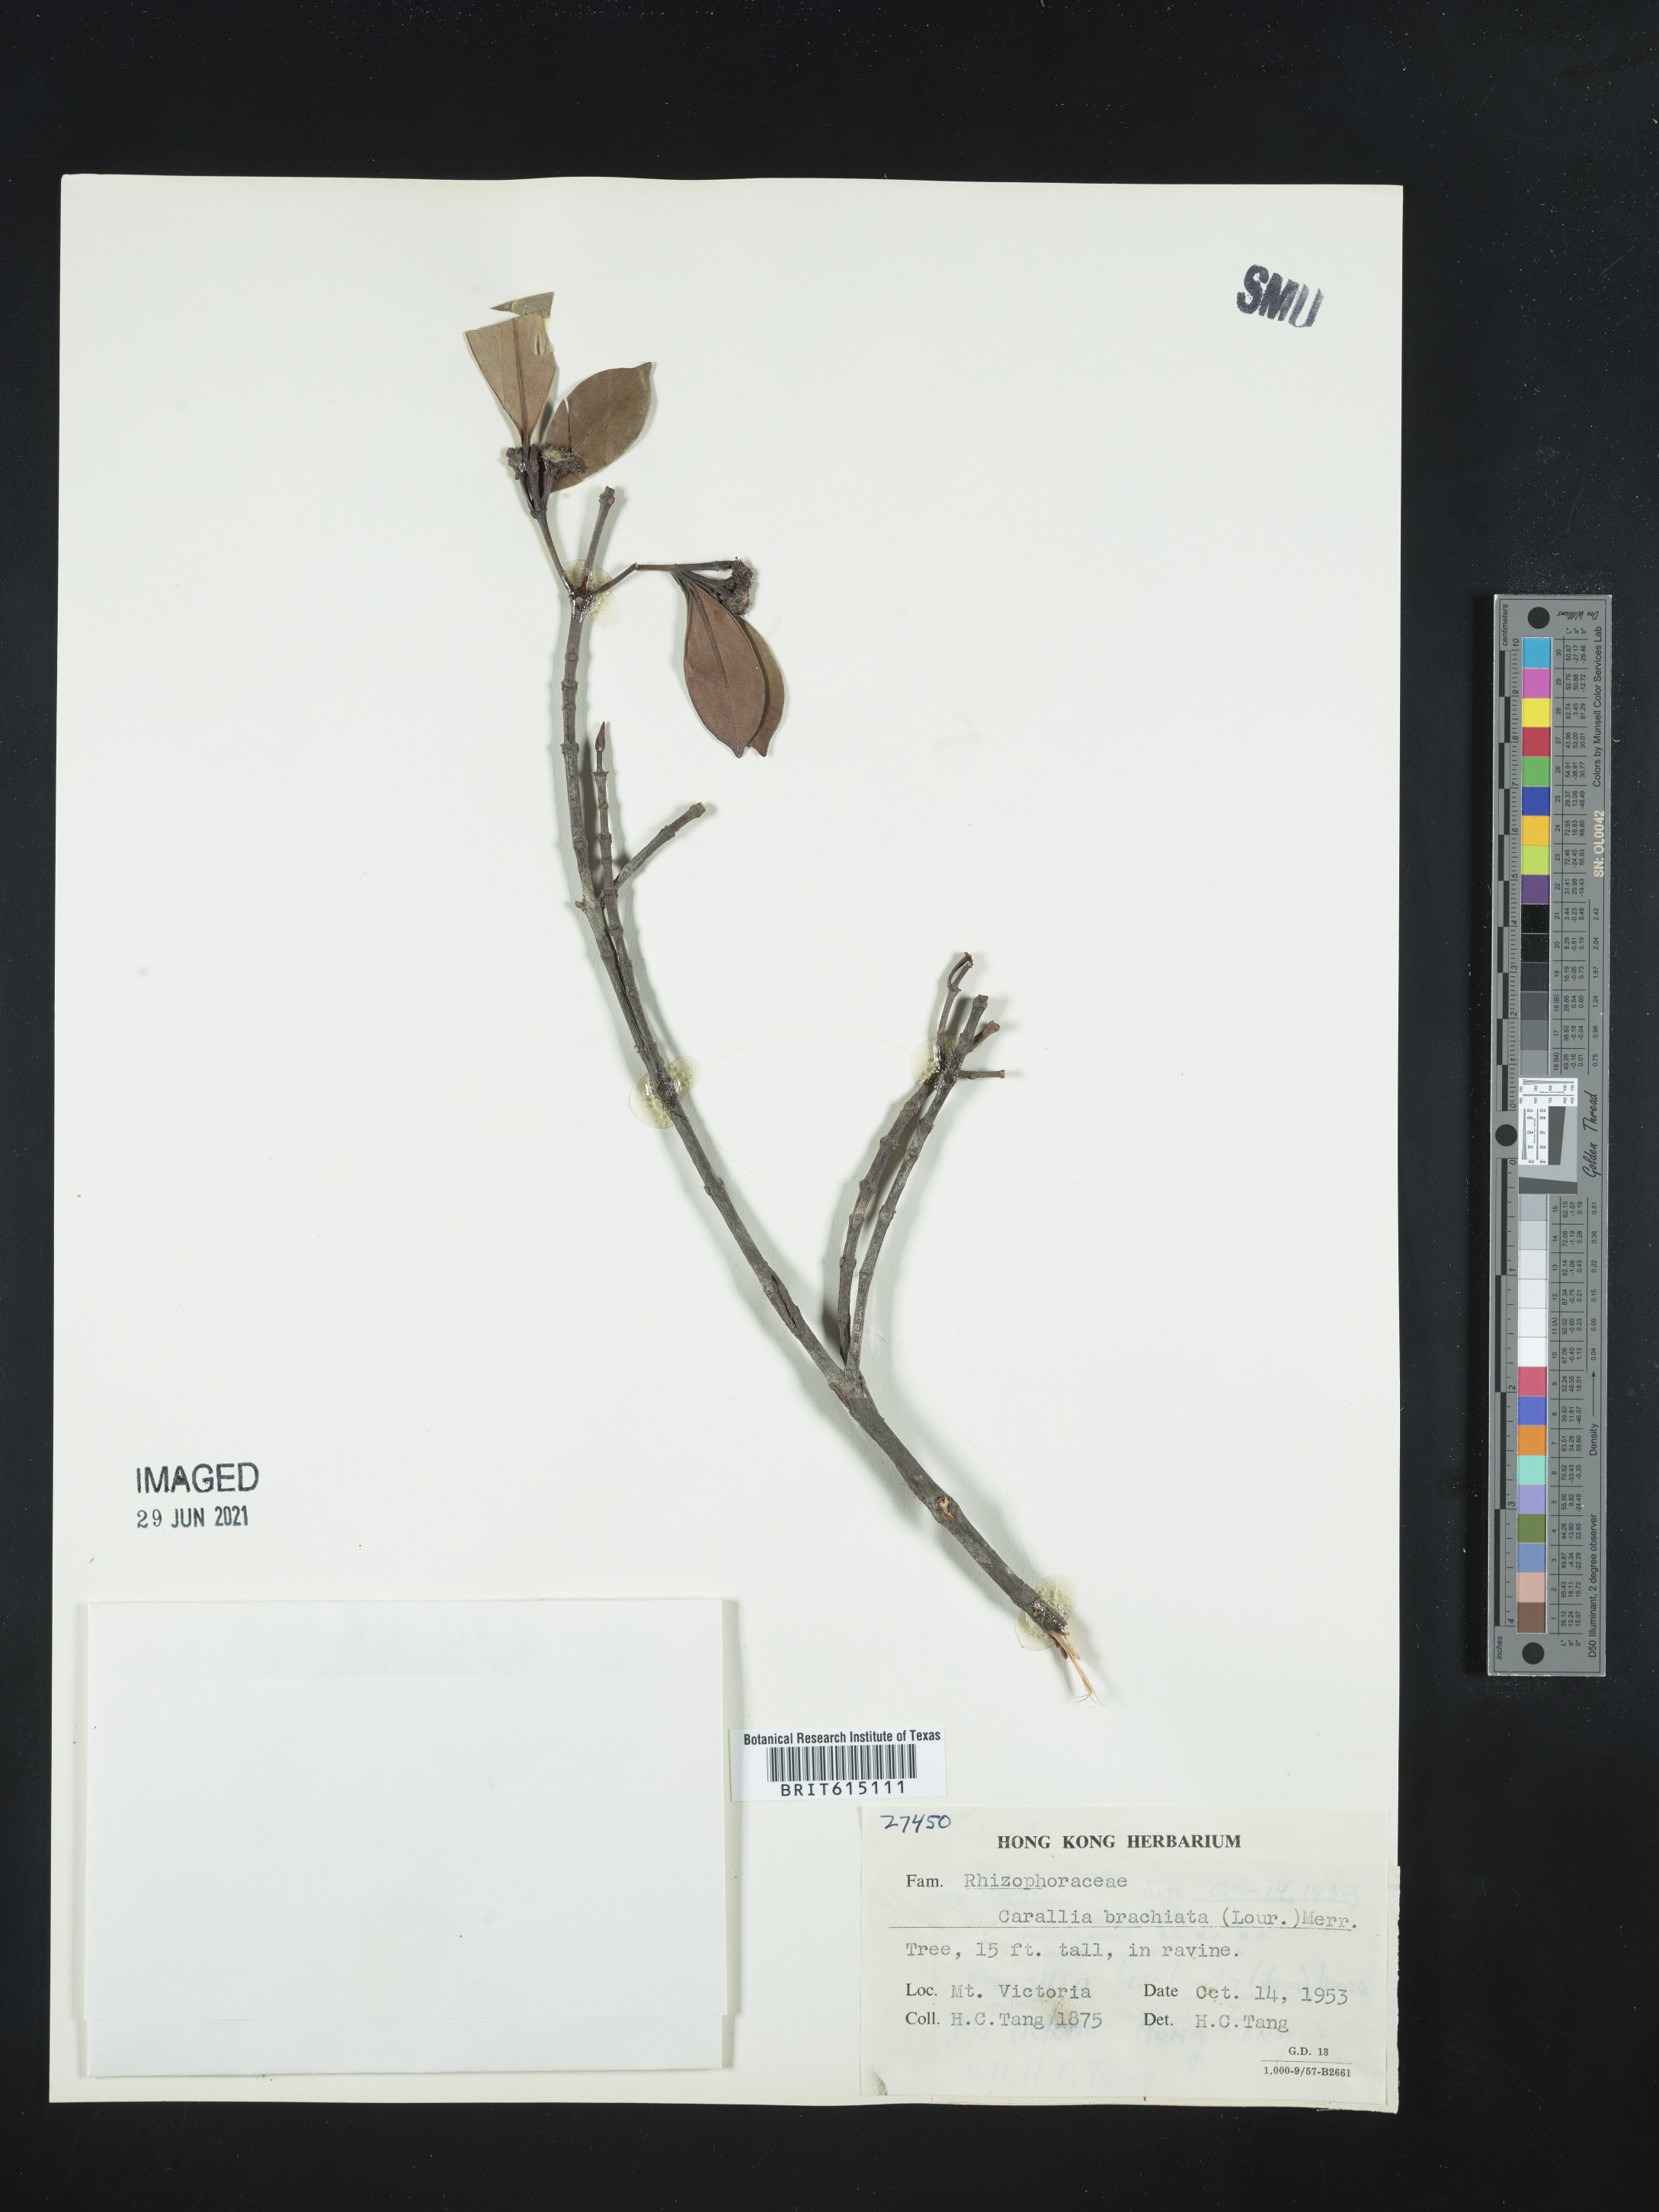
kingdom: Plantae
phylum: Tracheophyta
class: Magnoliopsida
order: Malpighiales
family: Rhizophoraceae
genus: Carallia
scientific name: Carallia brachiata
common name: Carallawood
